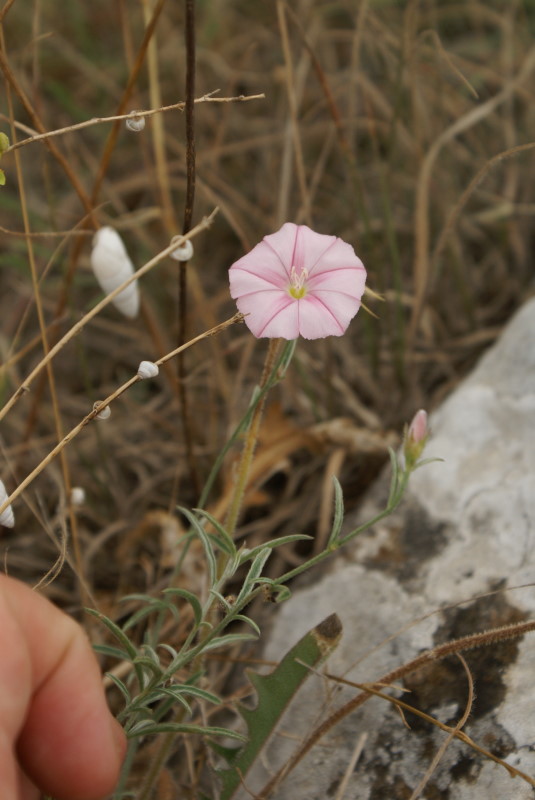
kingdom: Plantae
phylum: Tracheophyta
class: Magnoliopsida
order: Solanales
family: Convolvulaceae
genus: Convolvulus
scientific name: Convolvulus cantabrica
